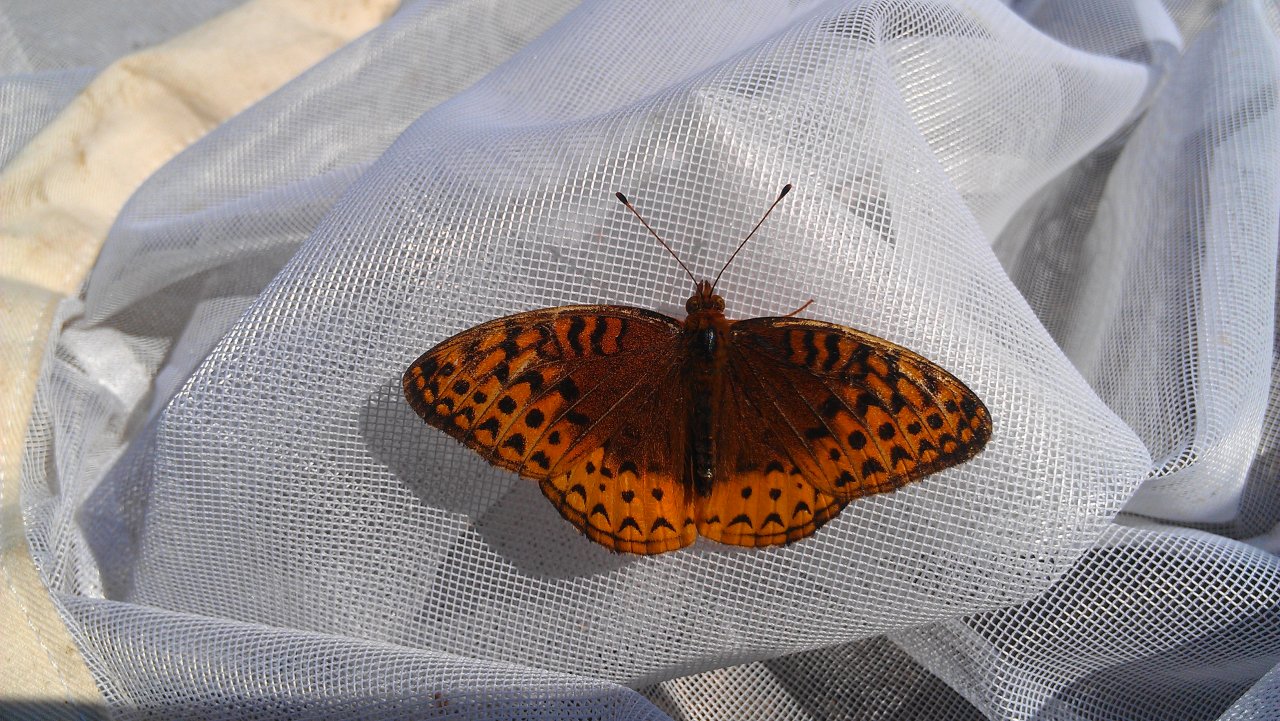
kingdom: Animalia
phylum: Arthropoda
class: Insecta
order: Lepidoptera
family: Nymphalidae
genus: Speyeria
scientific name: Speyeria cybele
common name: Great Spangled Fritillary
